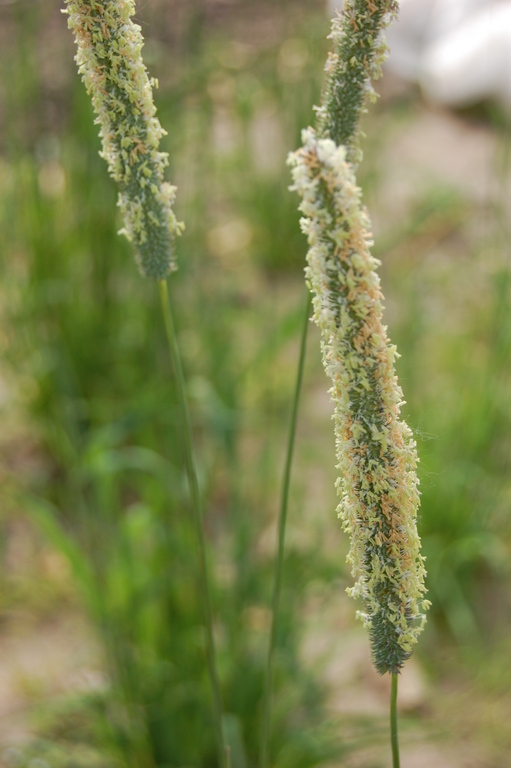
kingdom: Plantae
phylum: Tracheophyta
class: Liliopsida
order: Poales
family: Poaceae
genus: Phleum
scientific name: Phleum pratense
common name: Timothy grass
